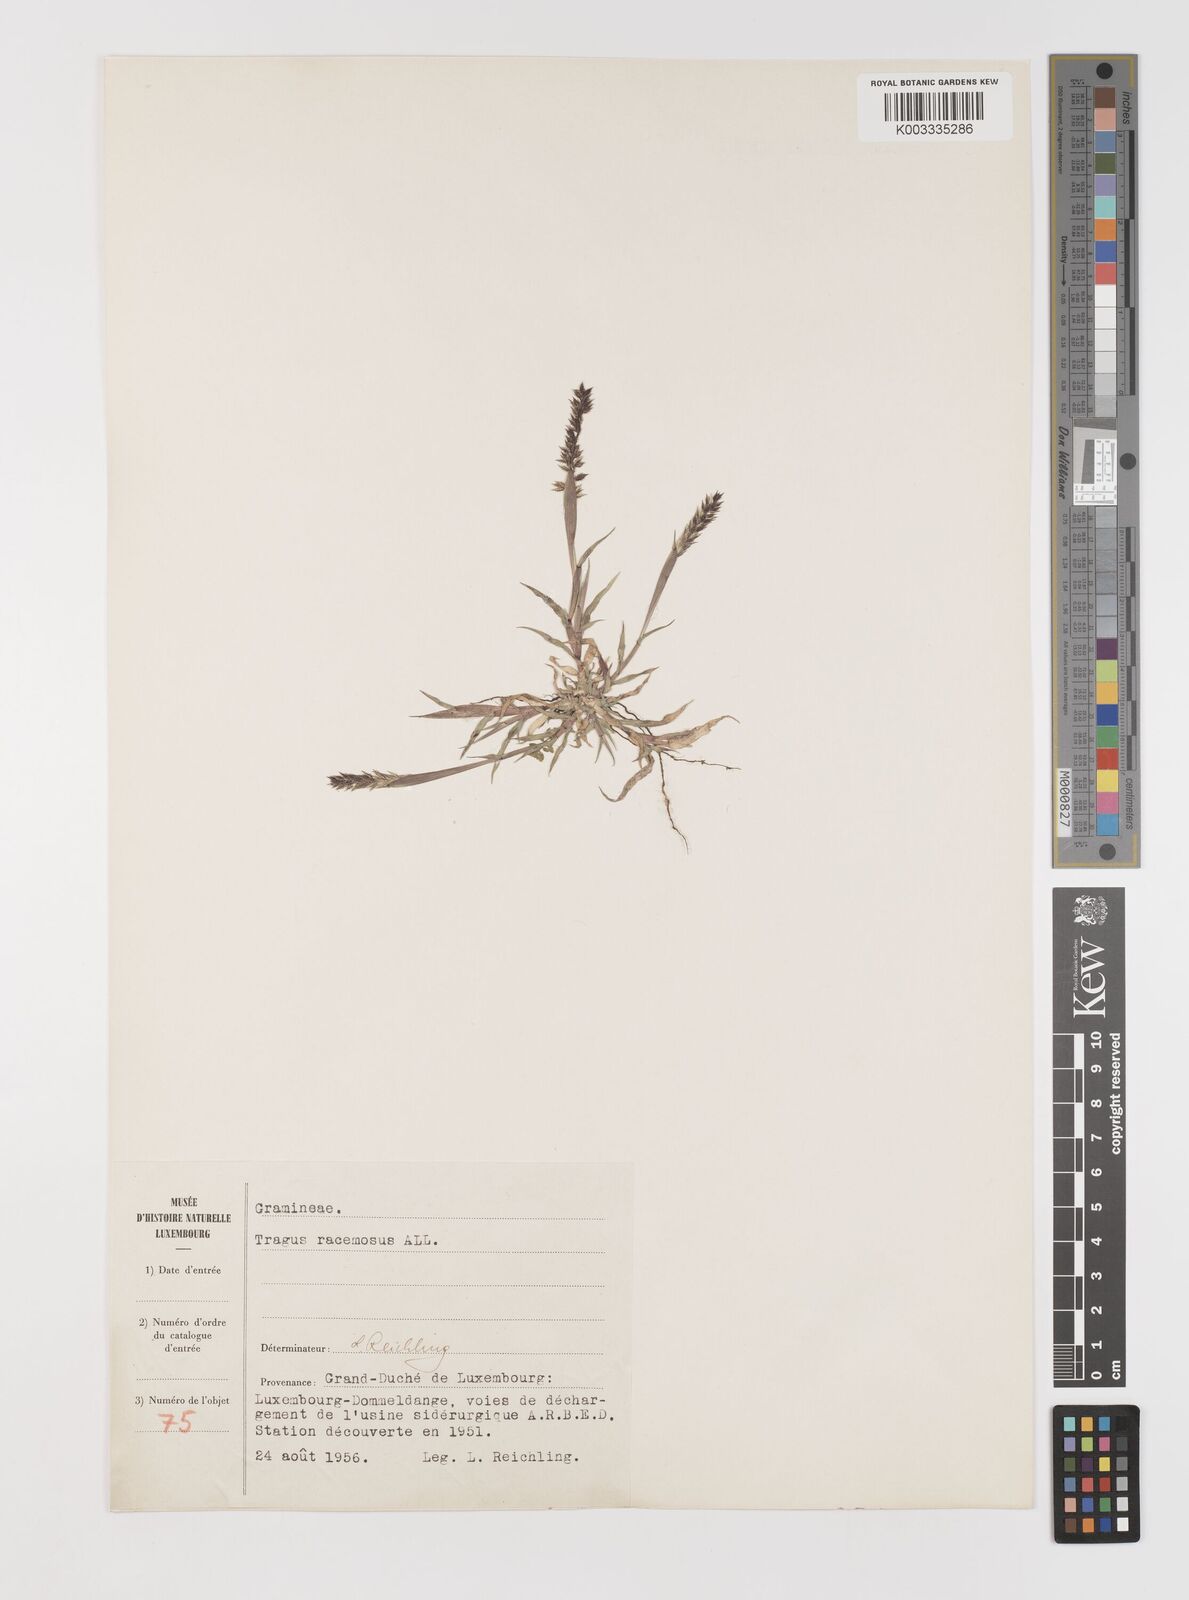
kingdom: Plantae
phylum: Tracheophyta
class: Liliopsida
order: Poales
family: Poaceae
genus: Tragus
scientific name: Tragus racemosus
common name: European bur-grass
